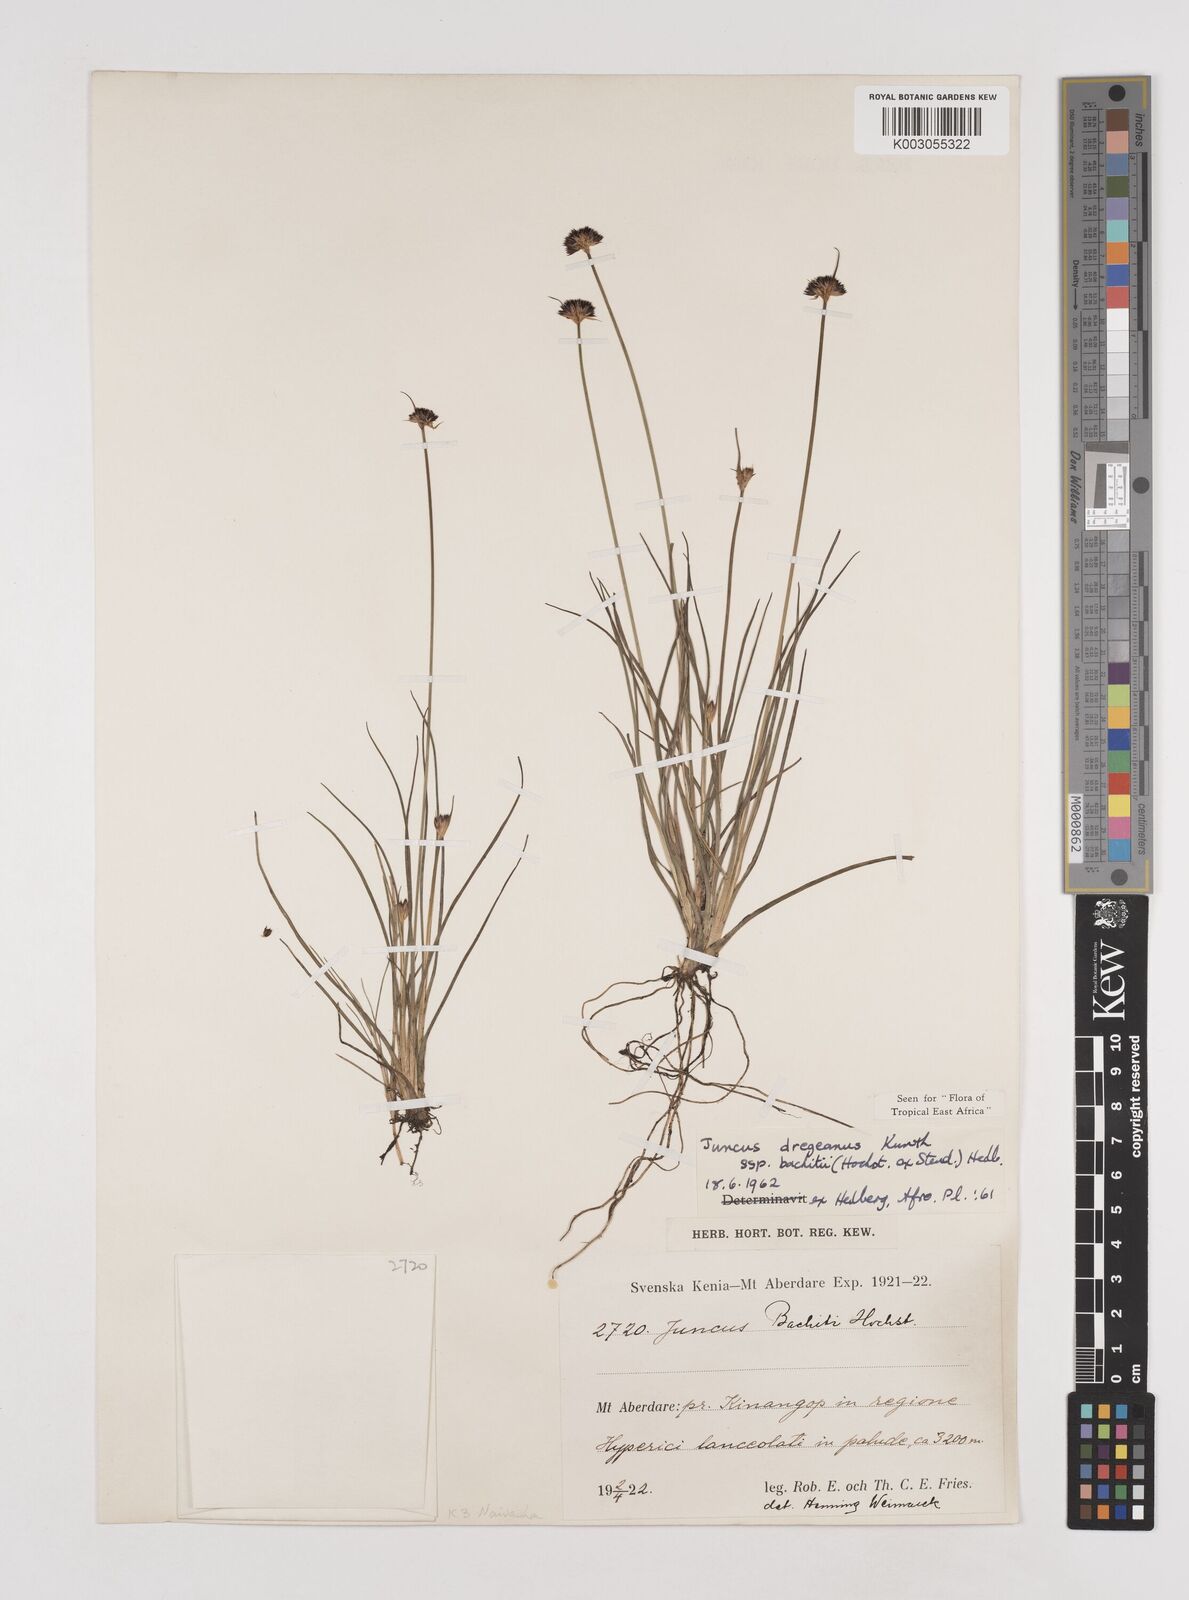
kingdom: Plantae
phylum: Tracheophyta
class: Liliopsida
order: Poales
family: Juncaceae
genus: Juncus
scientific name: Juncus dregeanus
